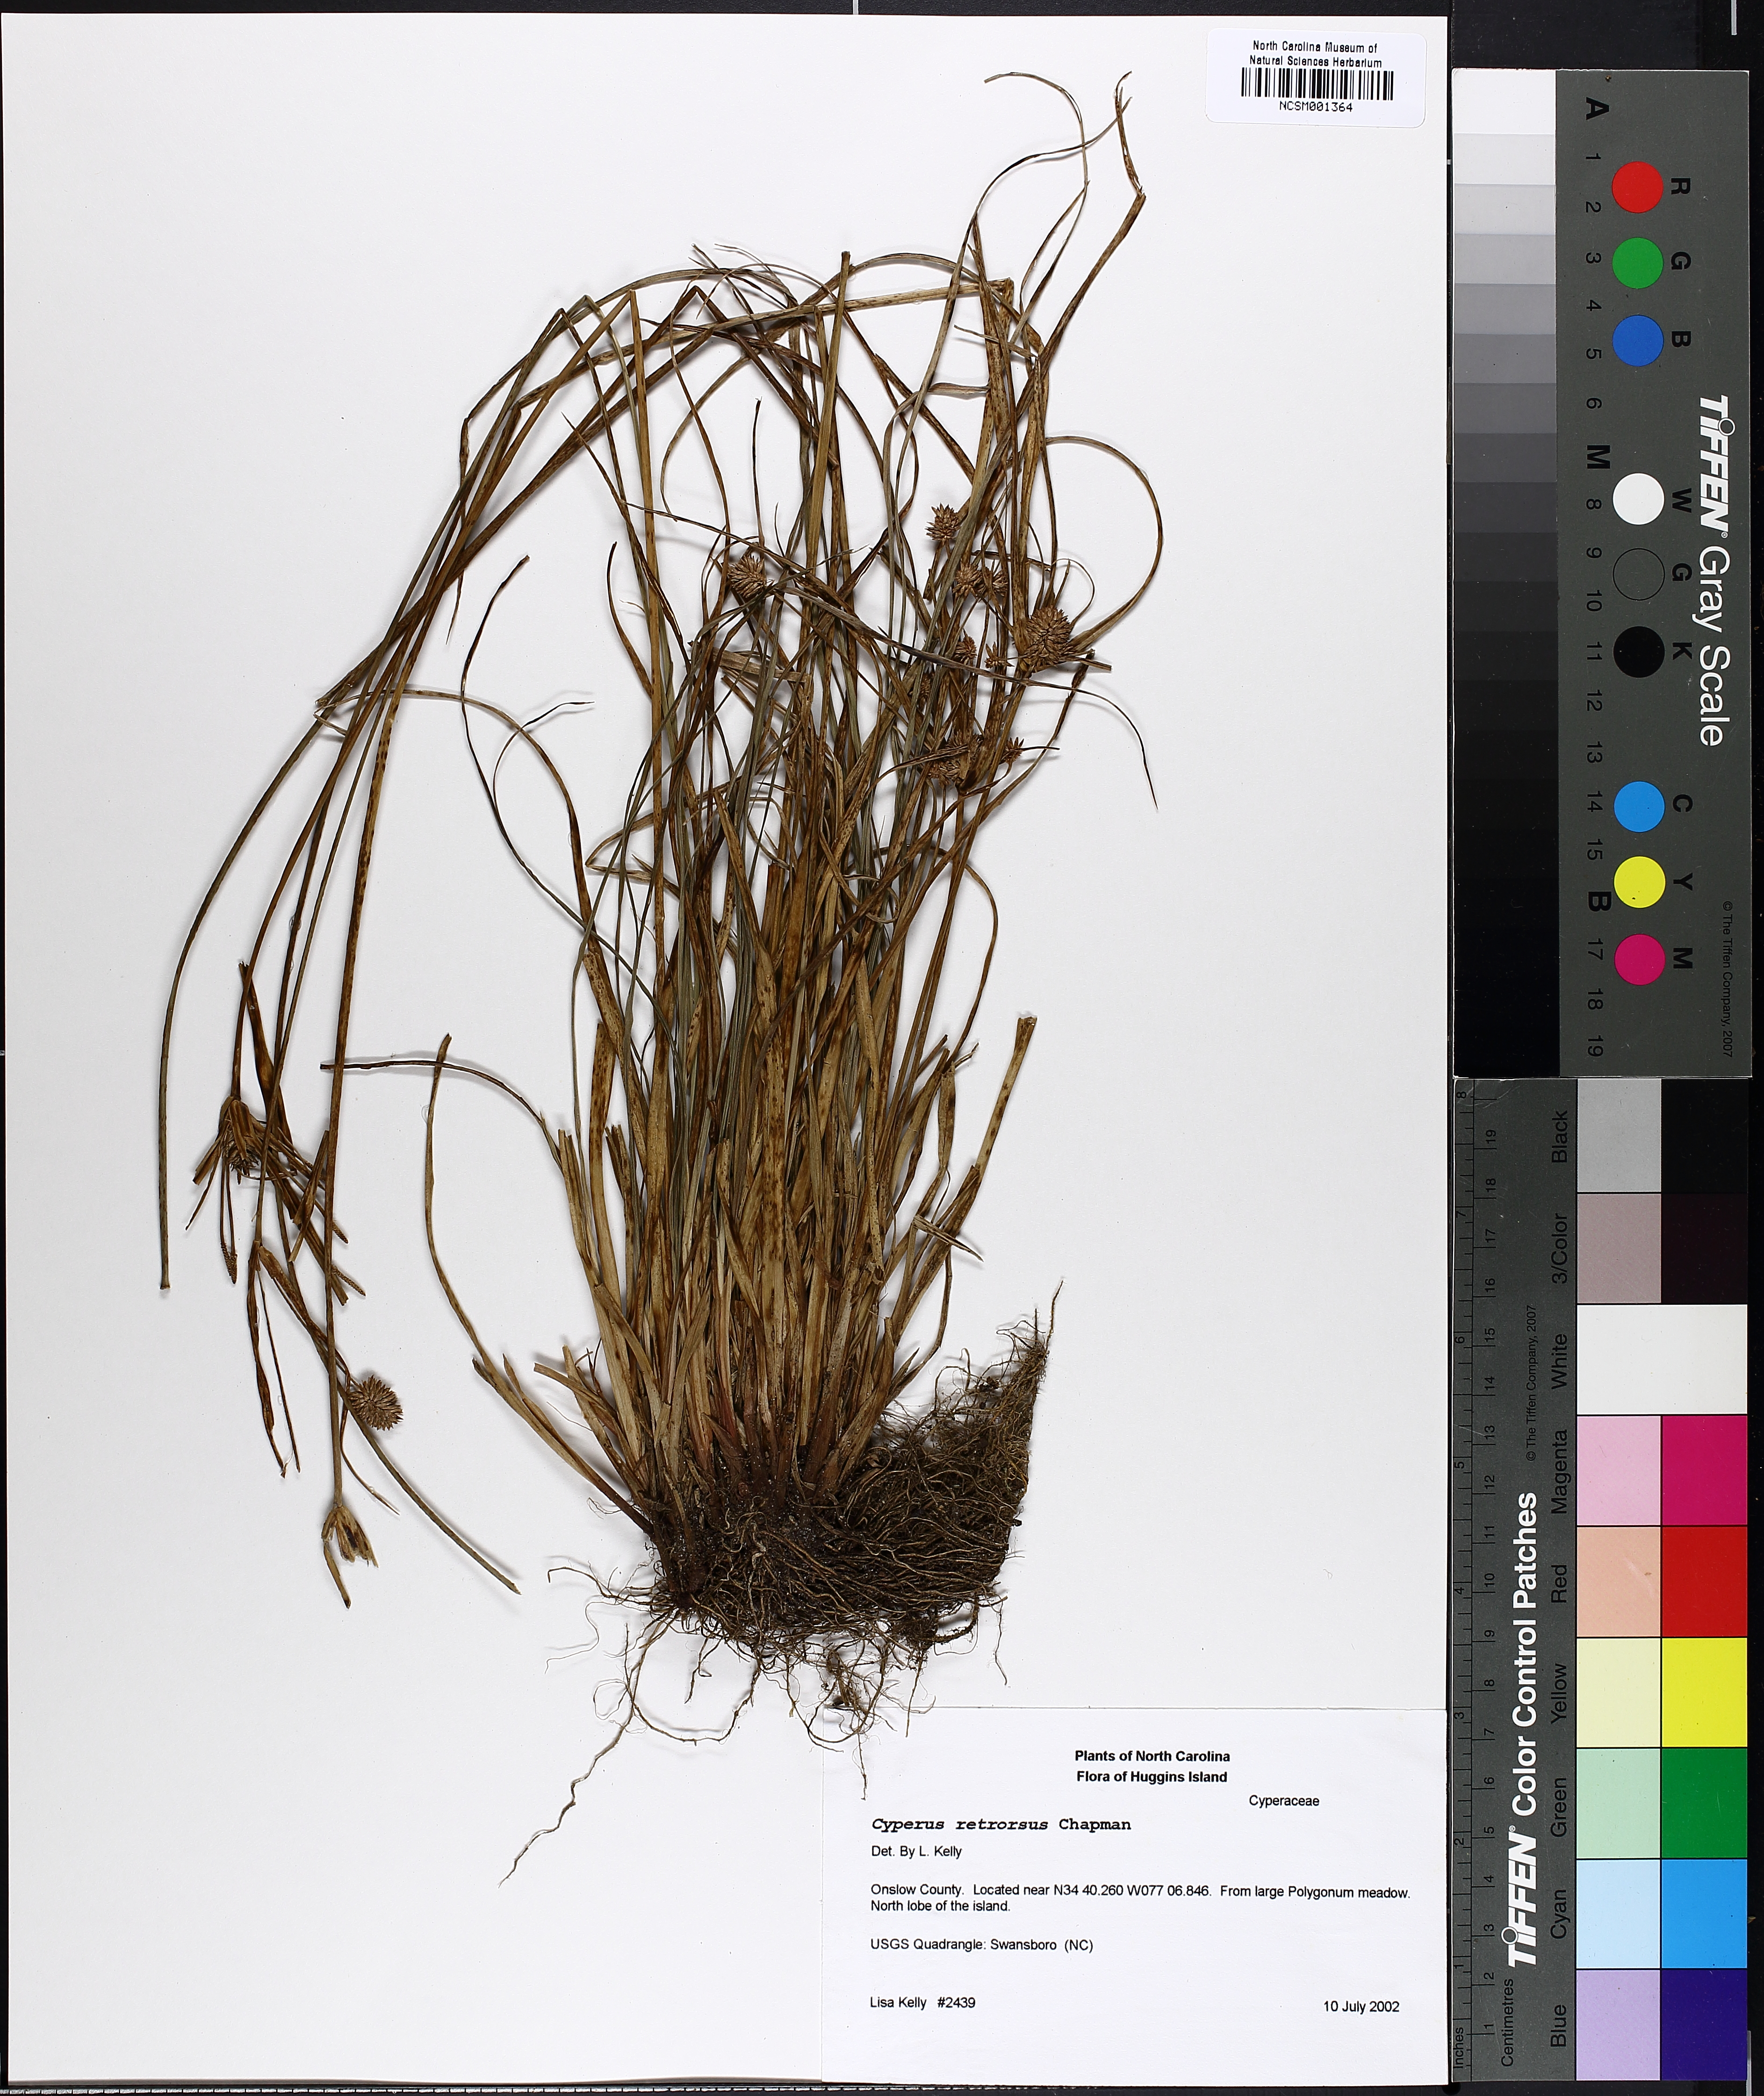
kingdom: Plantae
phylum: Tracheophyta
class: Liliopsida
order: Poales
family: Cyperaceae
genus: Cyperus
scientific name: Cyperus retrorsus
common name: Pinebarren flat sedge
